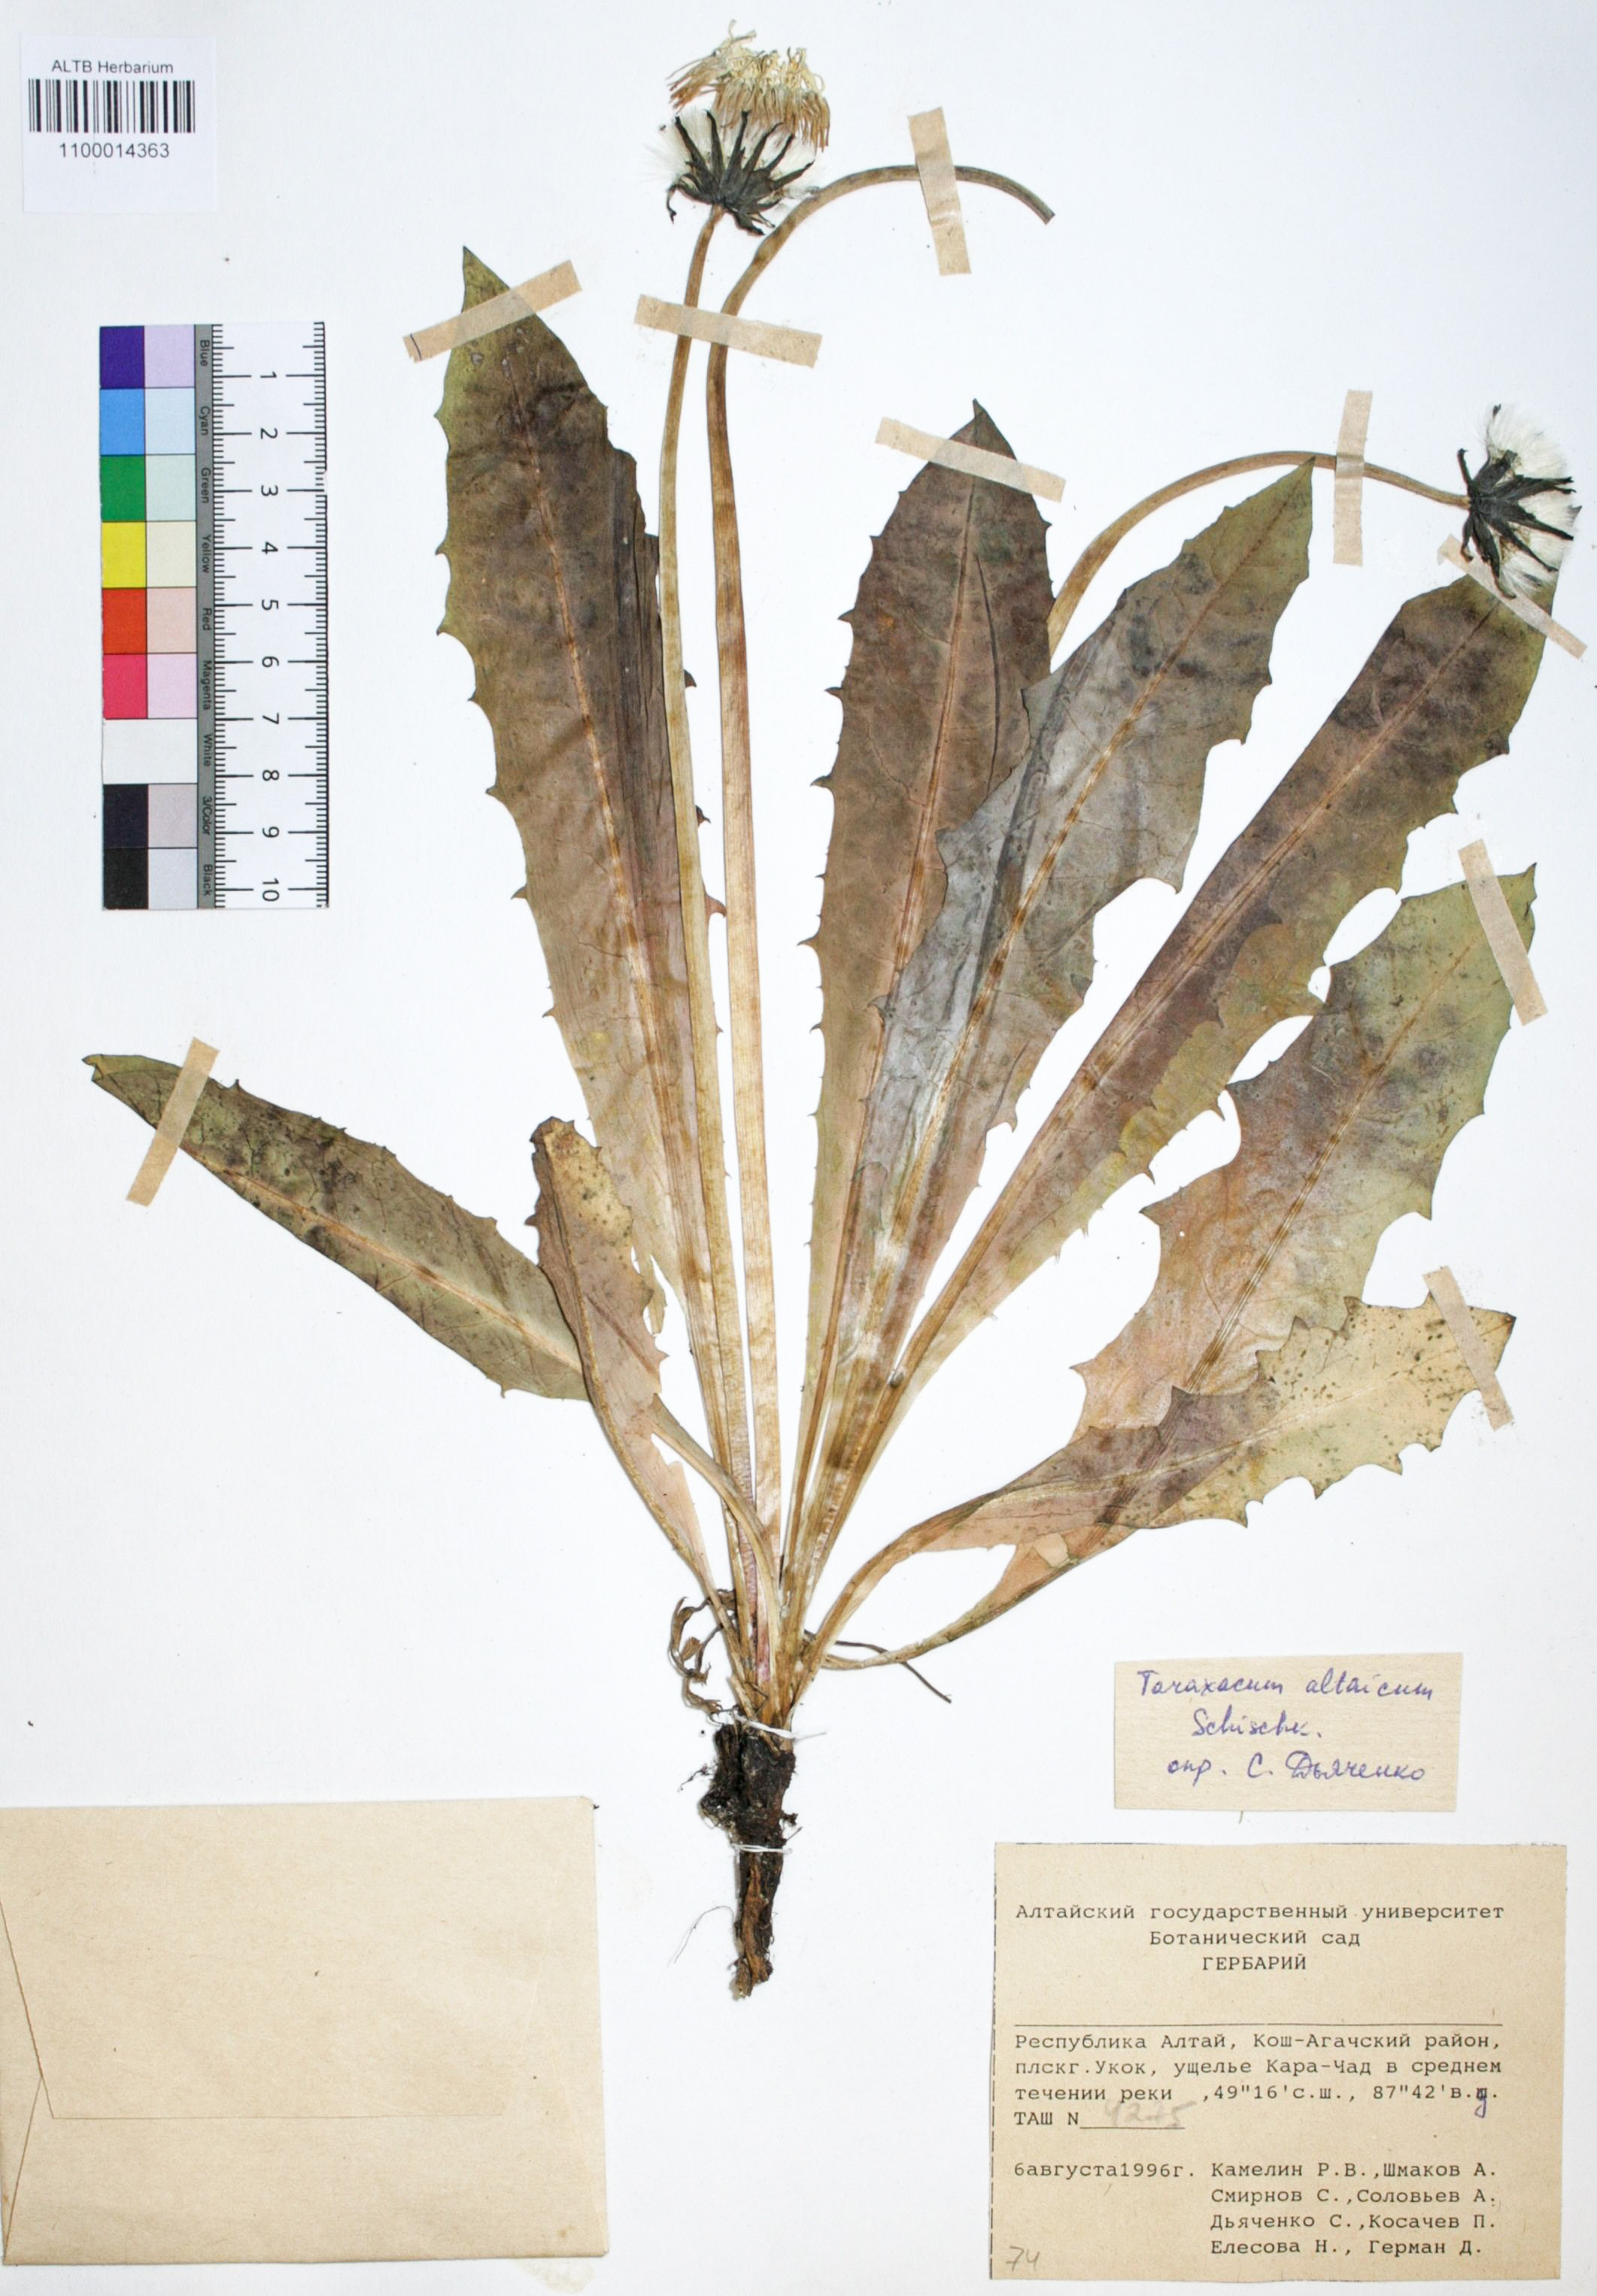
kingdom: Plantae
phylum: Tracheophyta
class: Magnoliopsida
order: Asterales
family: Asteraceae
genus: Taraxacum
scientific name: Taraxacum ceratophorum
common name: Horn-bearing dandelion
